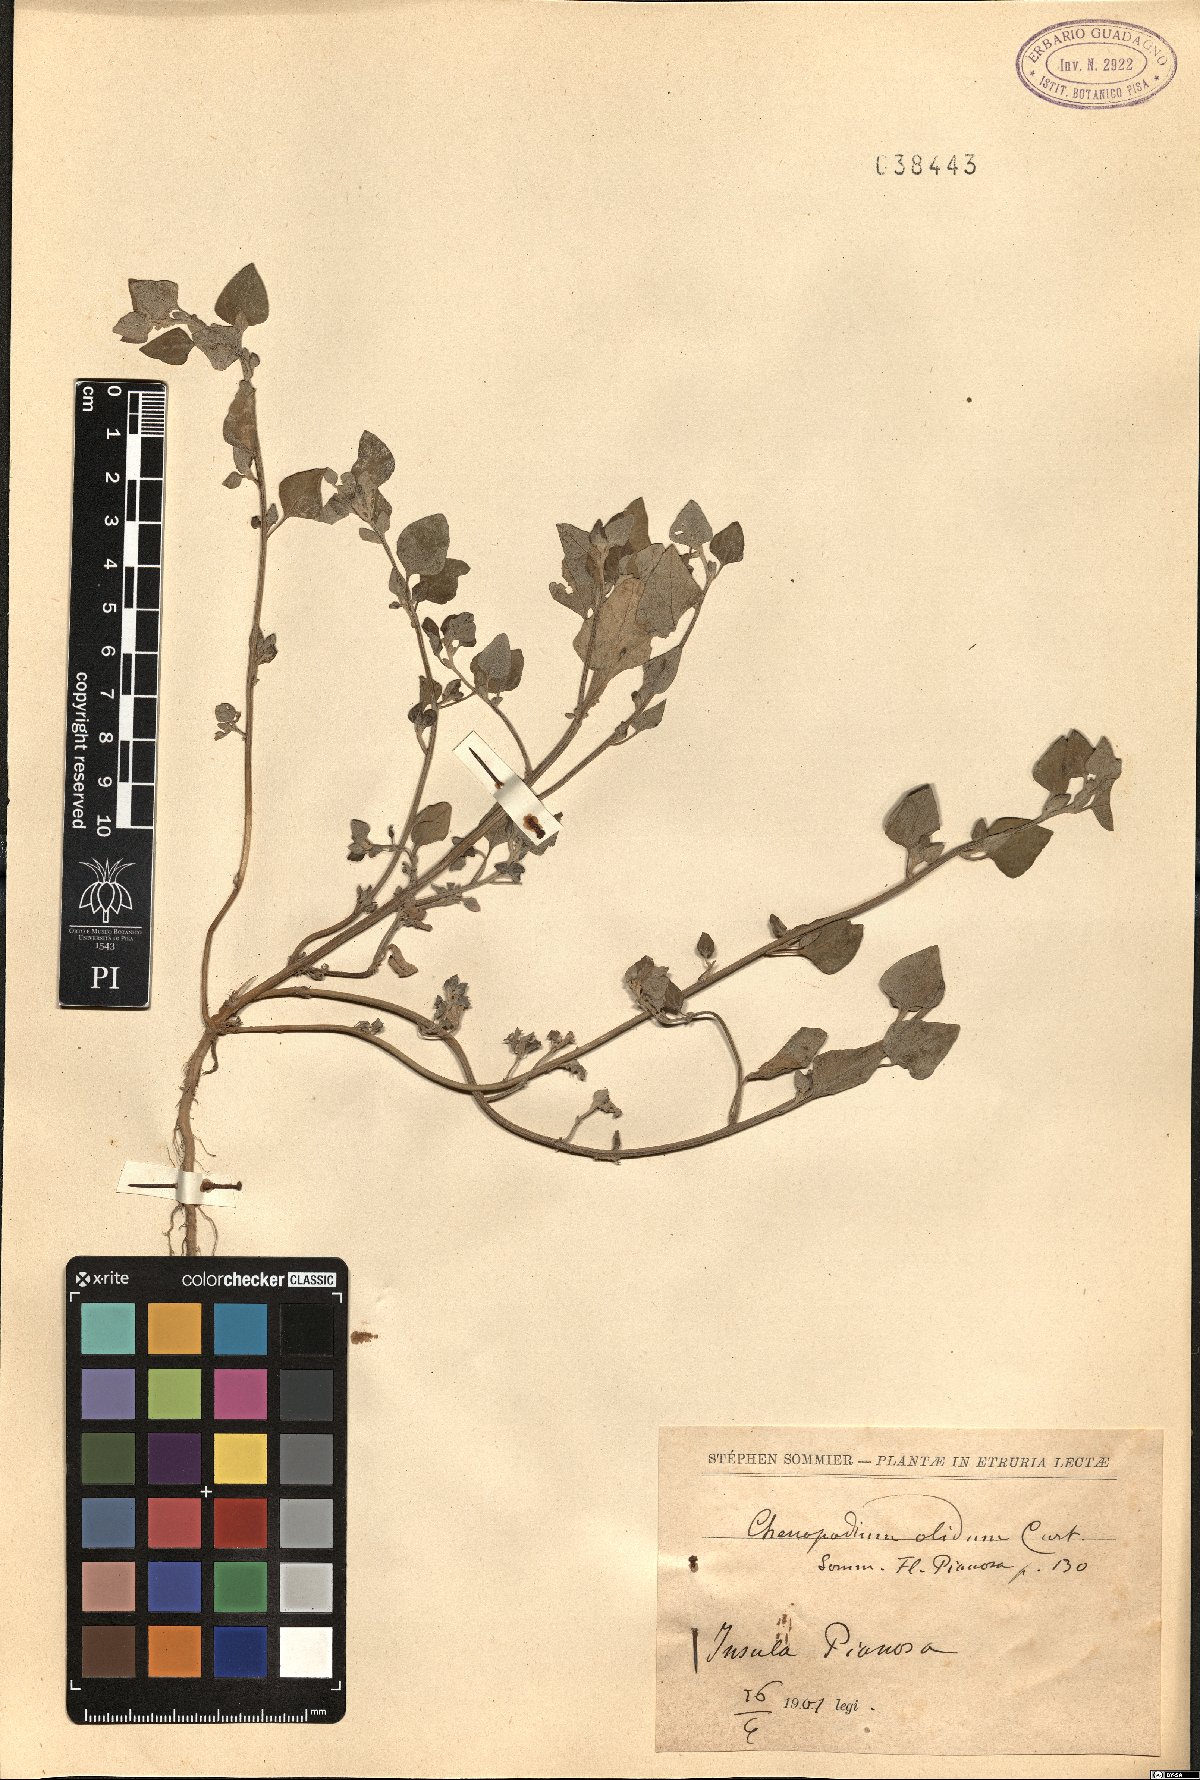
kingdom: Plantae
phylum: Tracheophyta
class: Magnoliopsida
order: Caryophyllales
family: Amaranthaceae
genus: Chenopodium
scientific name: Chenopodium vulvaria
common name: Stinking goosefoot
